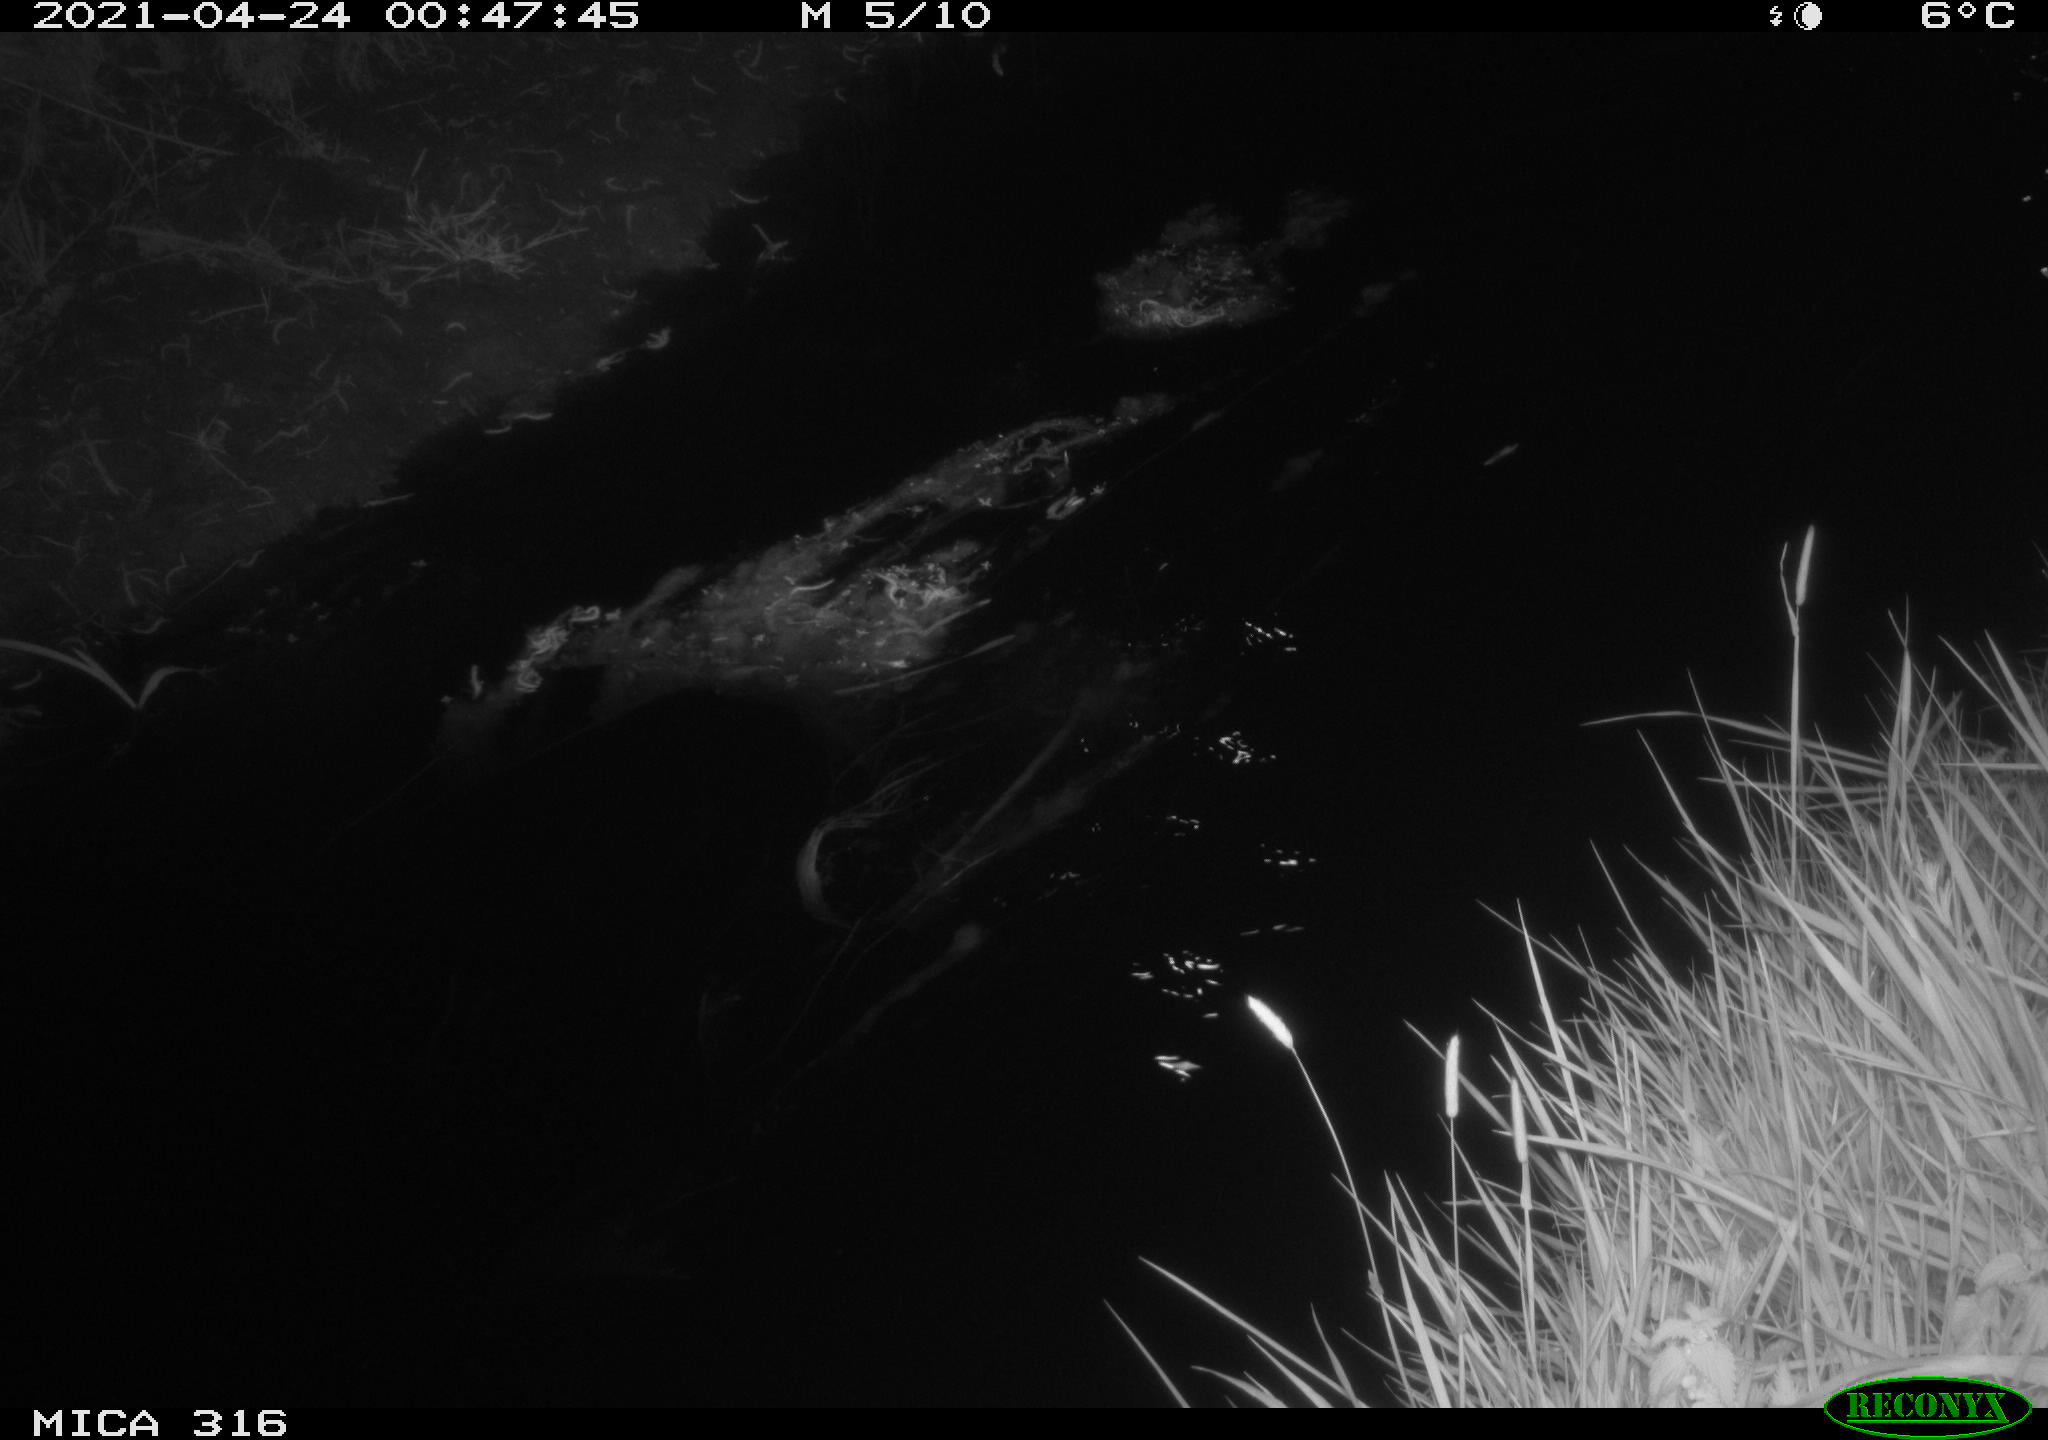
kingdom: Animalia
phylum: Chordata
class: Aves
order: Anseriformes
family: Anatidae
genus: Anas
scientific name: Anas platyrhynchos
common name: Mallard
